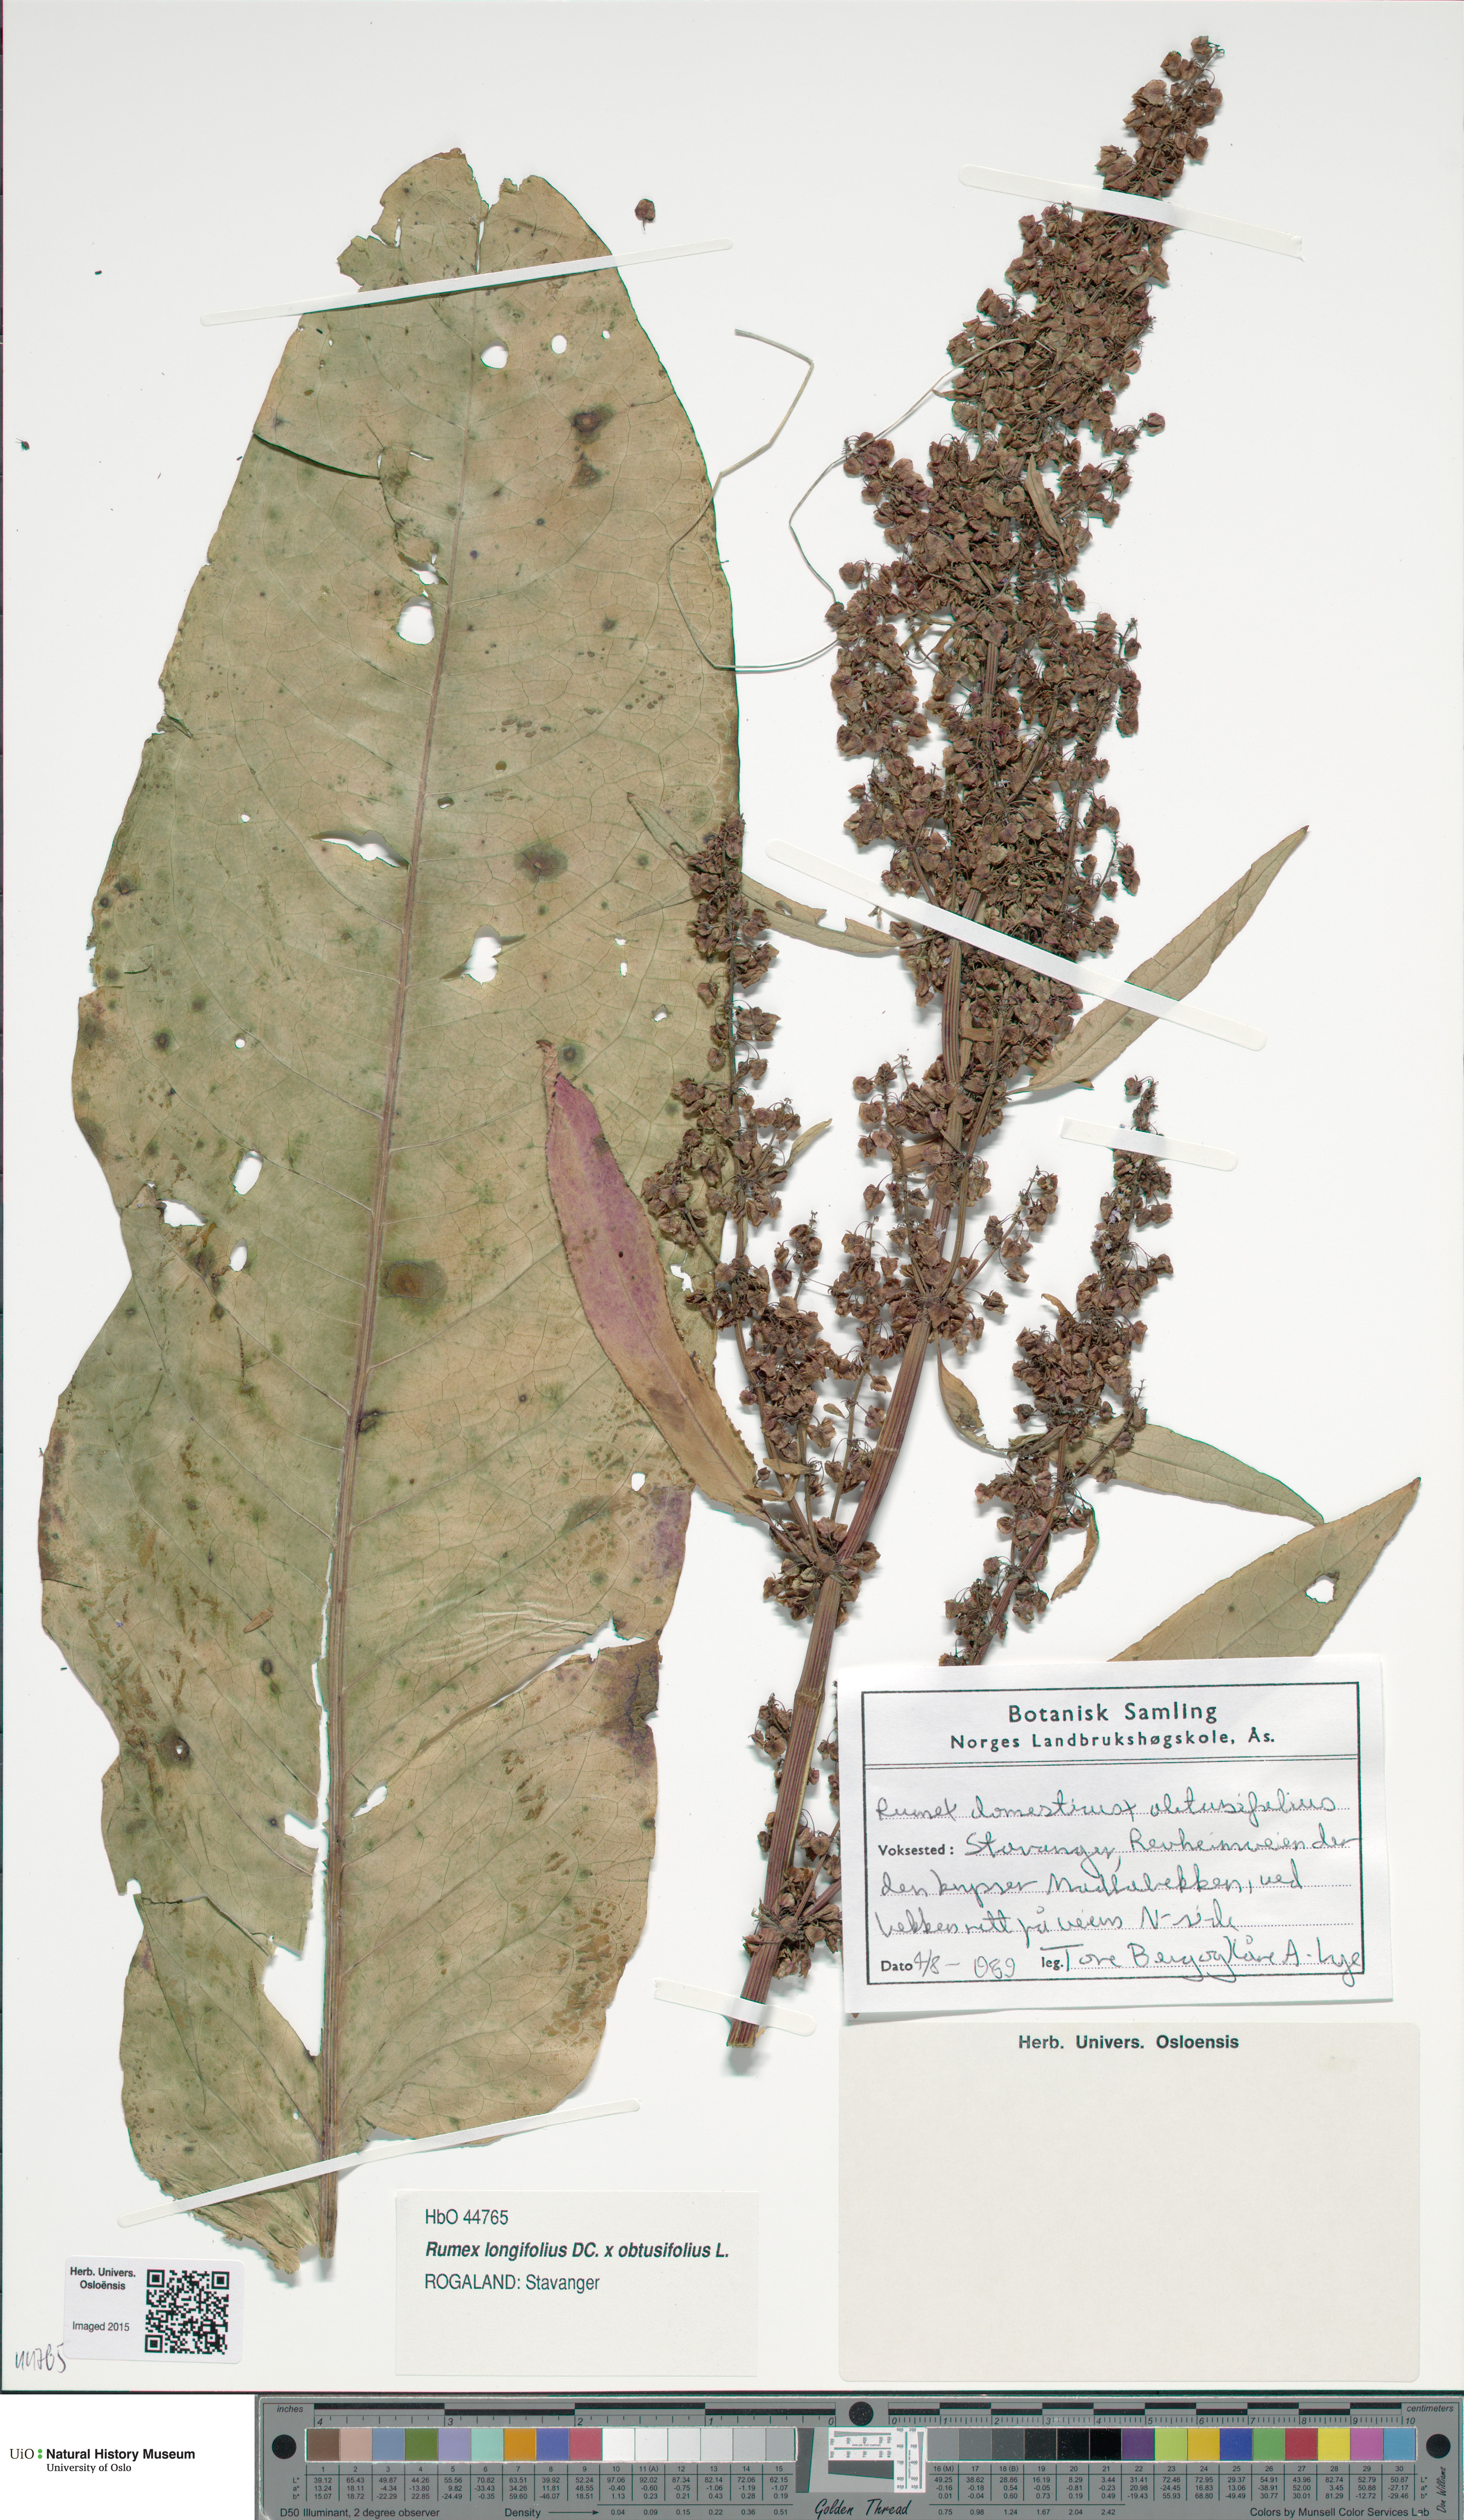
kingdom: Plantae
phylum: Tracheophyta
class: Magnoliopsida
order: Caryophyllales
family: Polygonaceae
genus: Rumex
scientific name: Rumex
